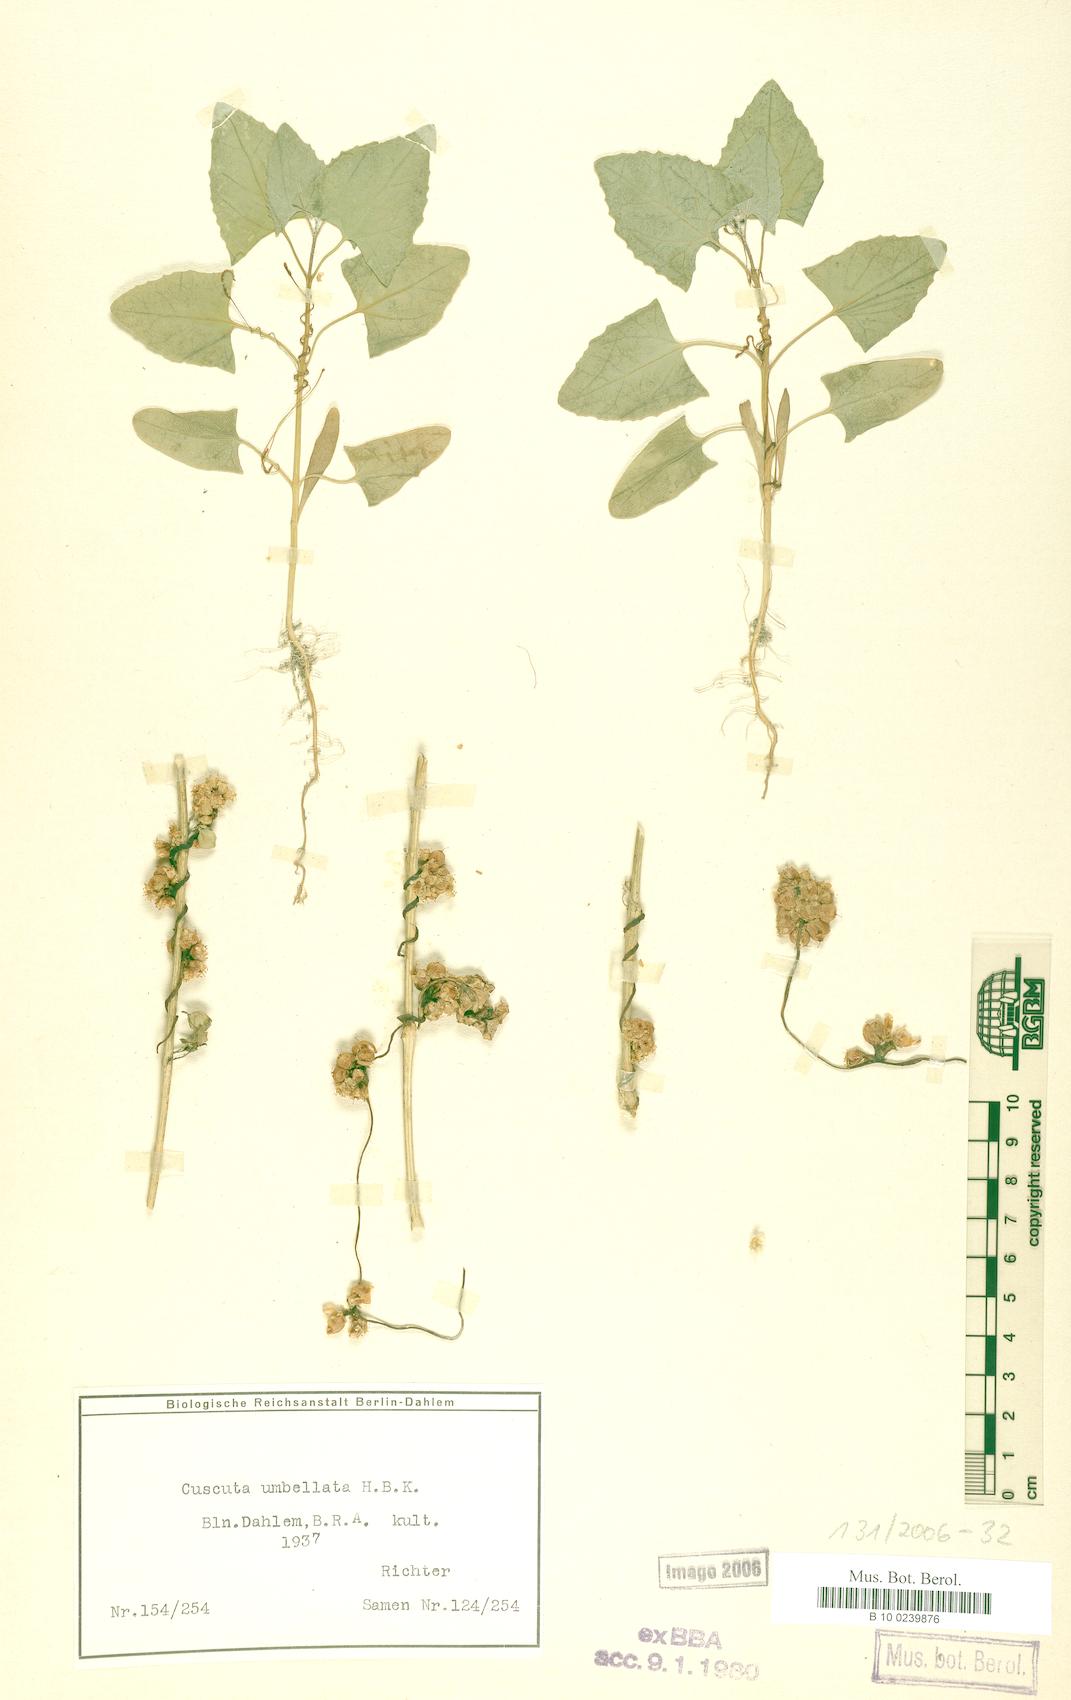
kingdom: Plantae
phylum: Tracheophyta
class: Magnoliopsida
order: Solanales
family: Convolvulaceae
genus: Cuscuta
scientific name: Cuscuta umbellata
